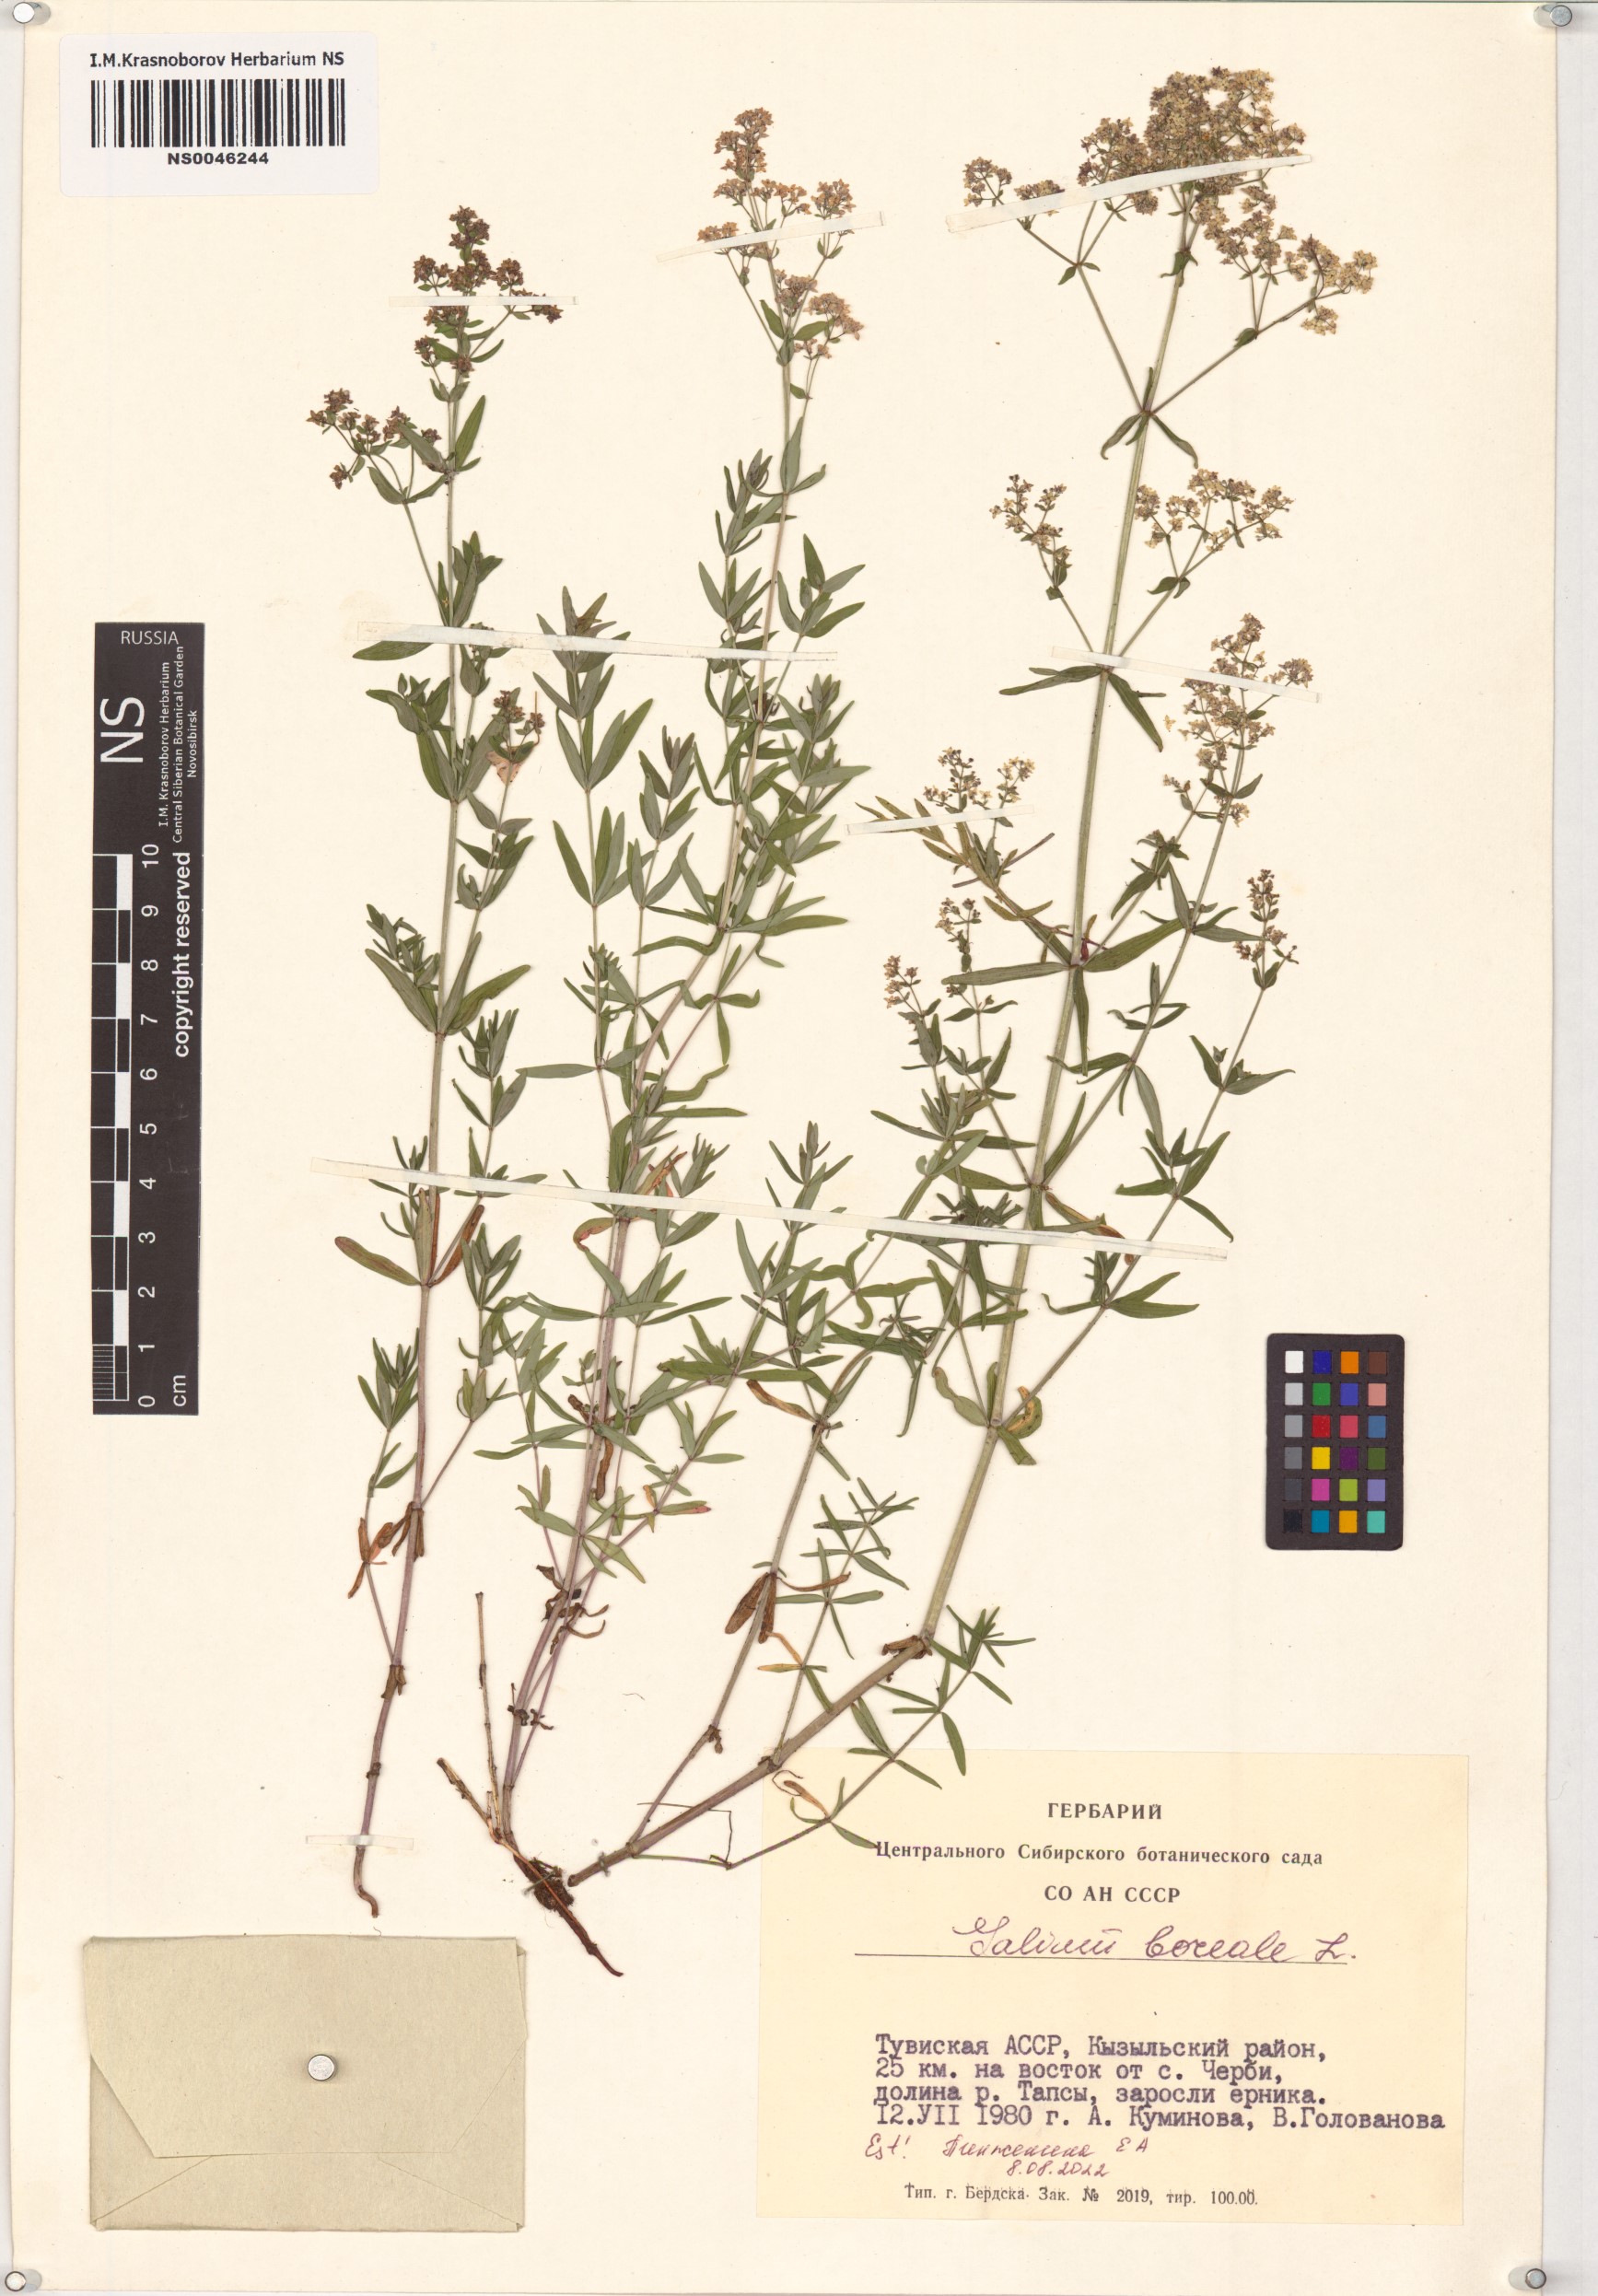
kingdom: Plantae
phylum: Tracheophyta
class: Magnoliopsida
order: Gentianales
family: Rubiaceae
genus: Galium
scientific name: Galium boreale
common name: Northern bedstraw
